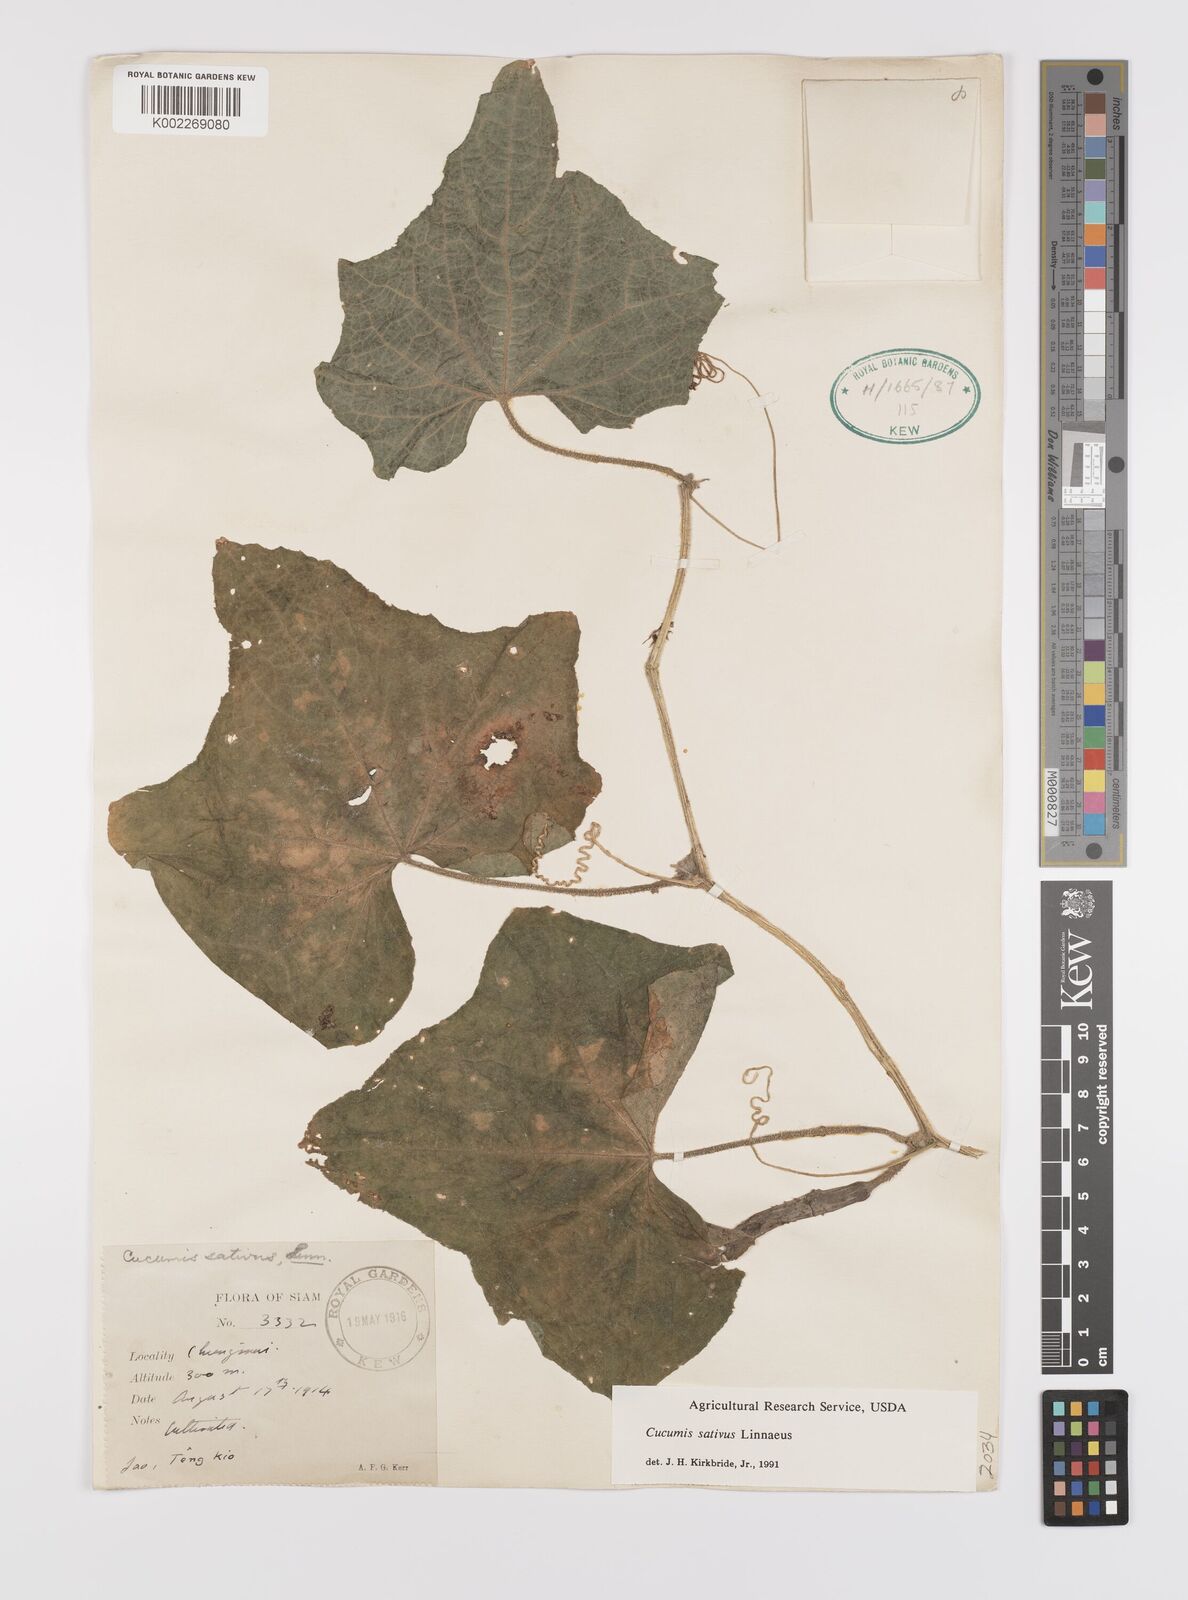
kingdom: Plantae
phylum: Tracheophyta
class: Magnoliopsida
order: Cucurbitales
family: Cucurbitaceae
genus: Cucumis
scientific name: Cucumis sativus
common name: Cucumber
